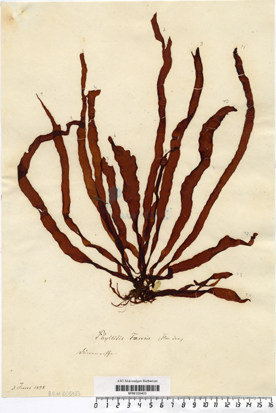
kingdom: Chromista
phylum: Ochrophyta
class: Phaeophyceae
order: Scytosiphonales
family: Scytosiphonaceae
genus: Petalonia
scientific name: Petalonia fascia
